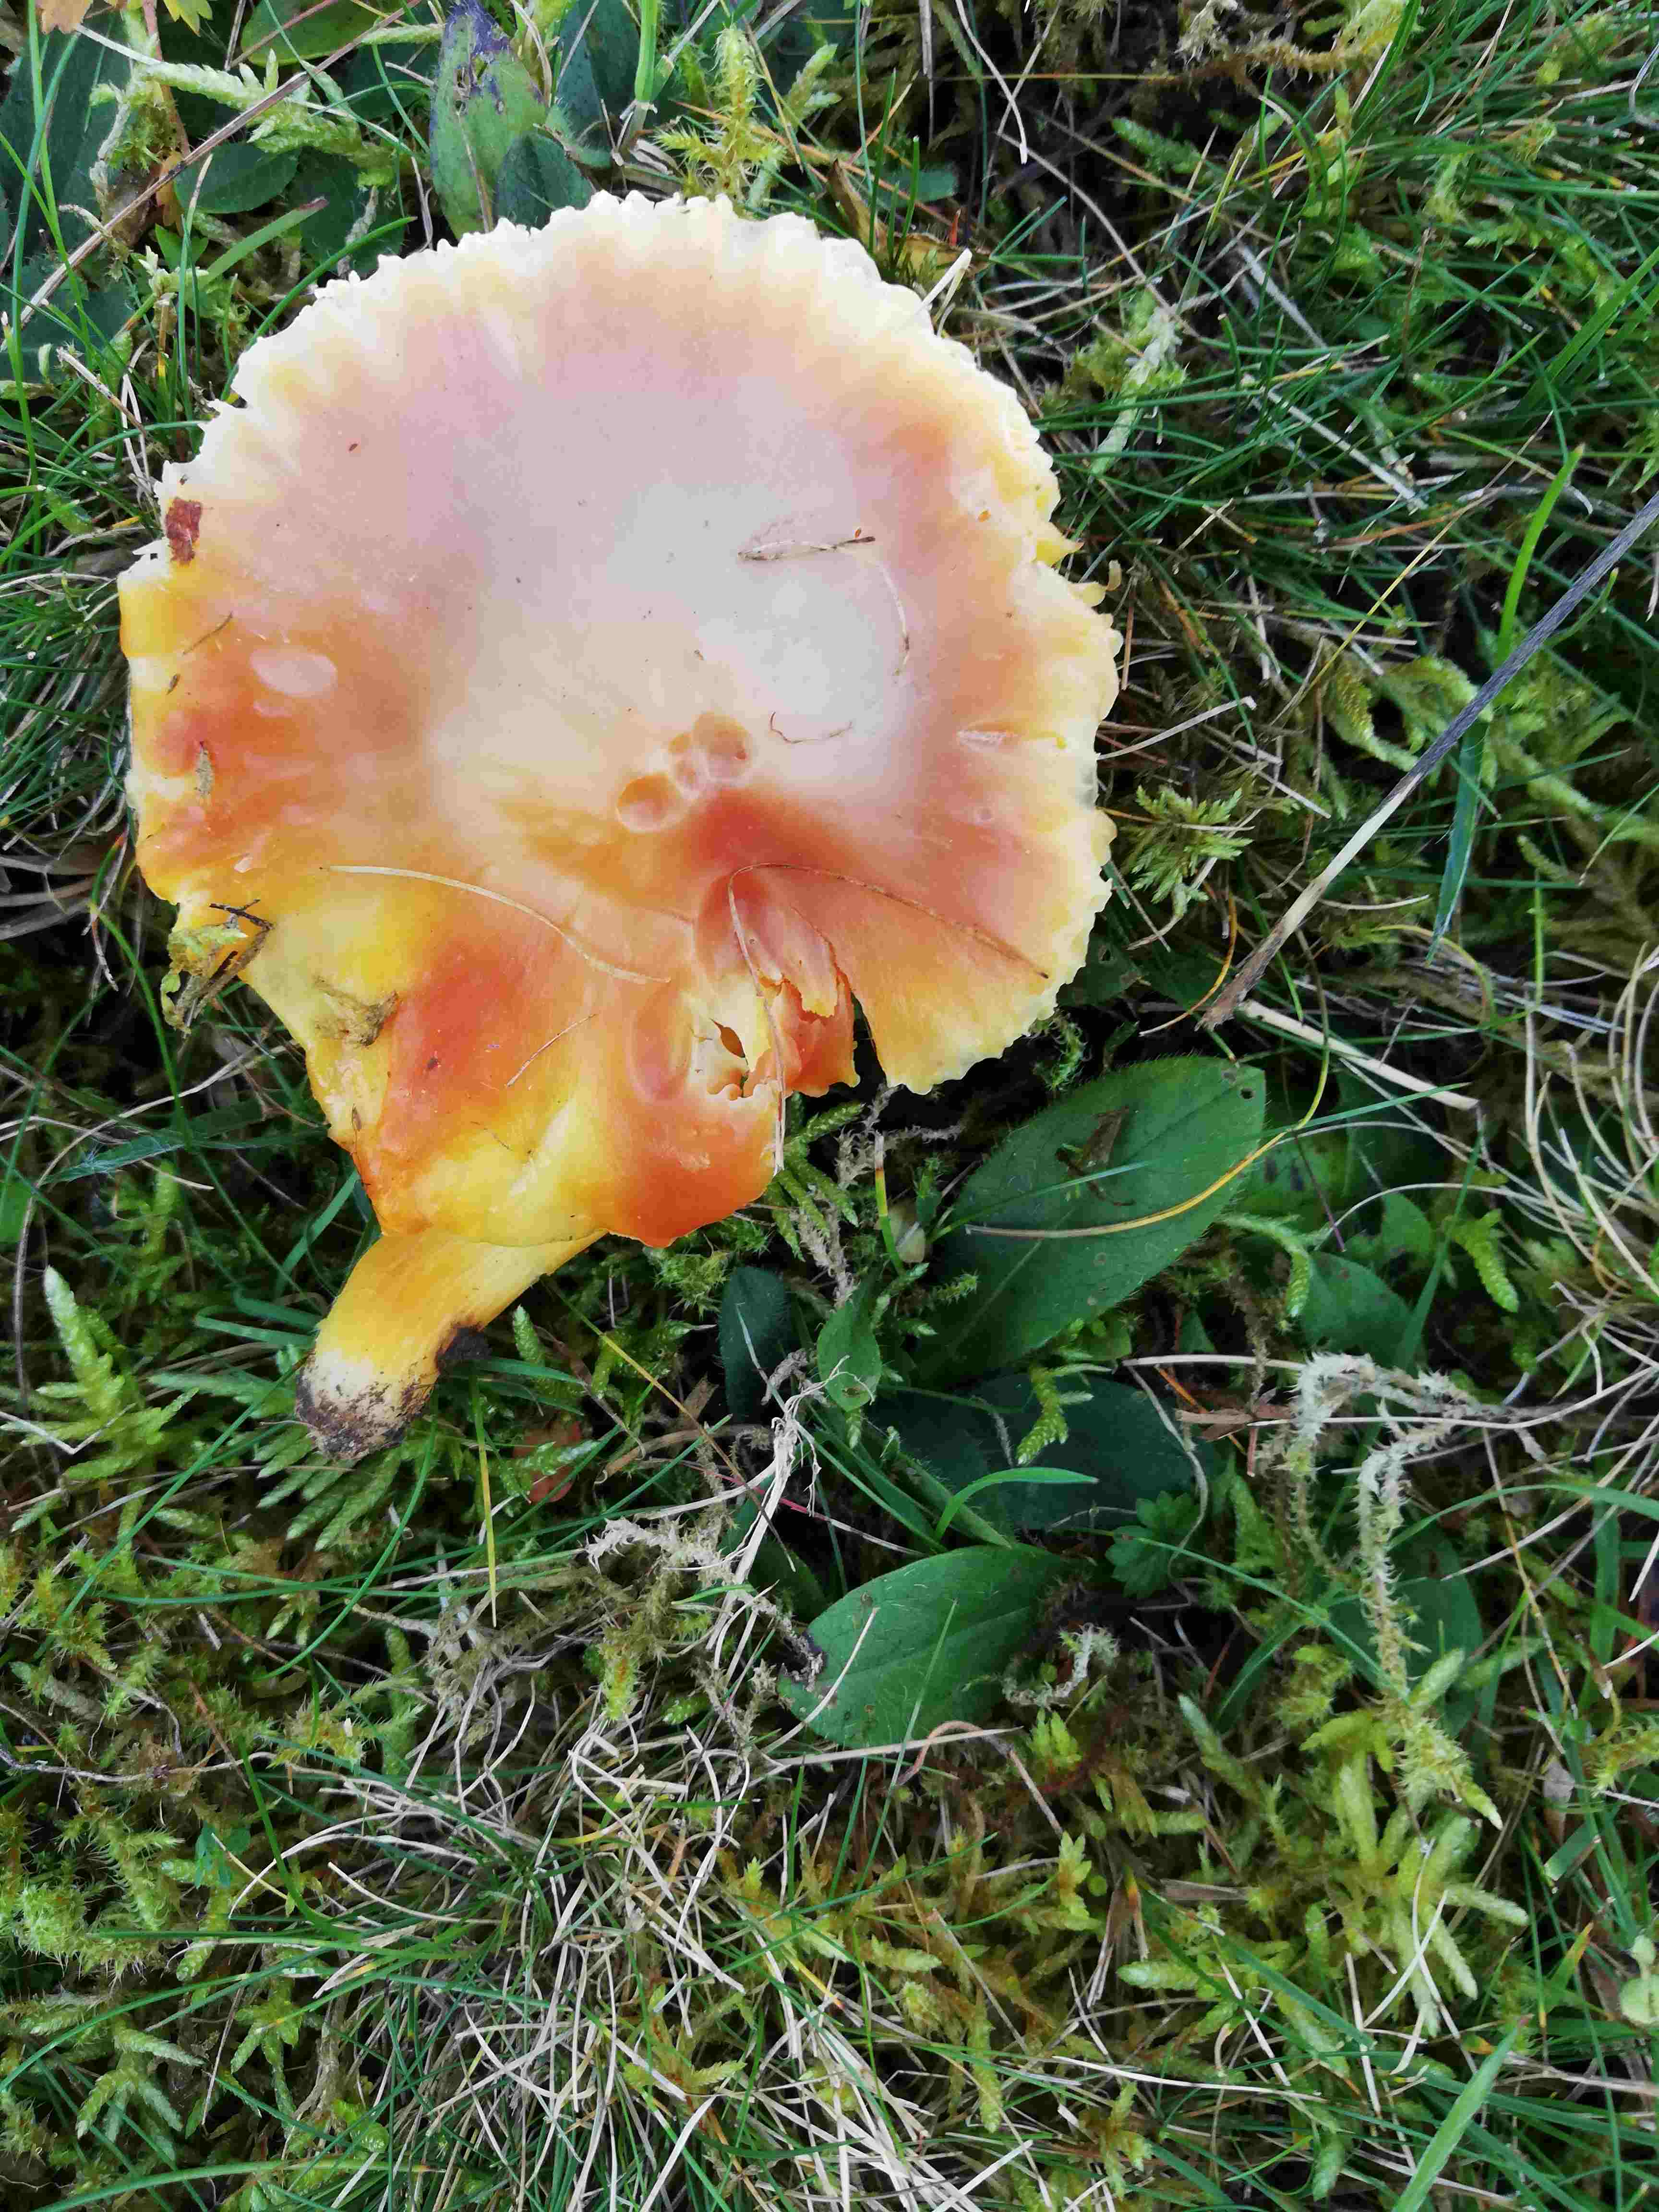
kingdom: Fungi
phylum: Basidiomycota
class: Agaricomycetes
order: Agaricales
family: Hygrophoraceae
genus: Hygrocybe
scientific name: Hygrocybe coccinea
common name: cinnober-vokshat
